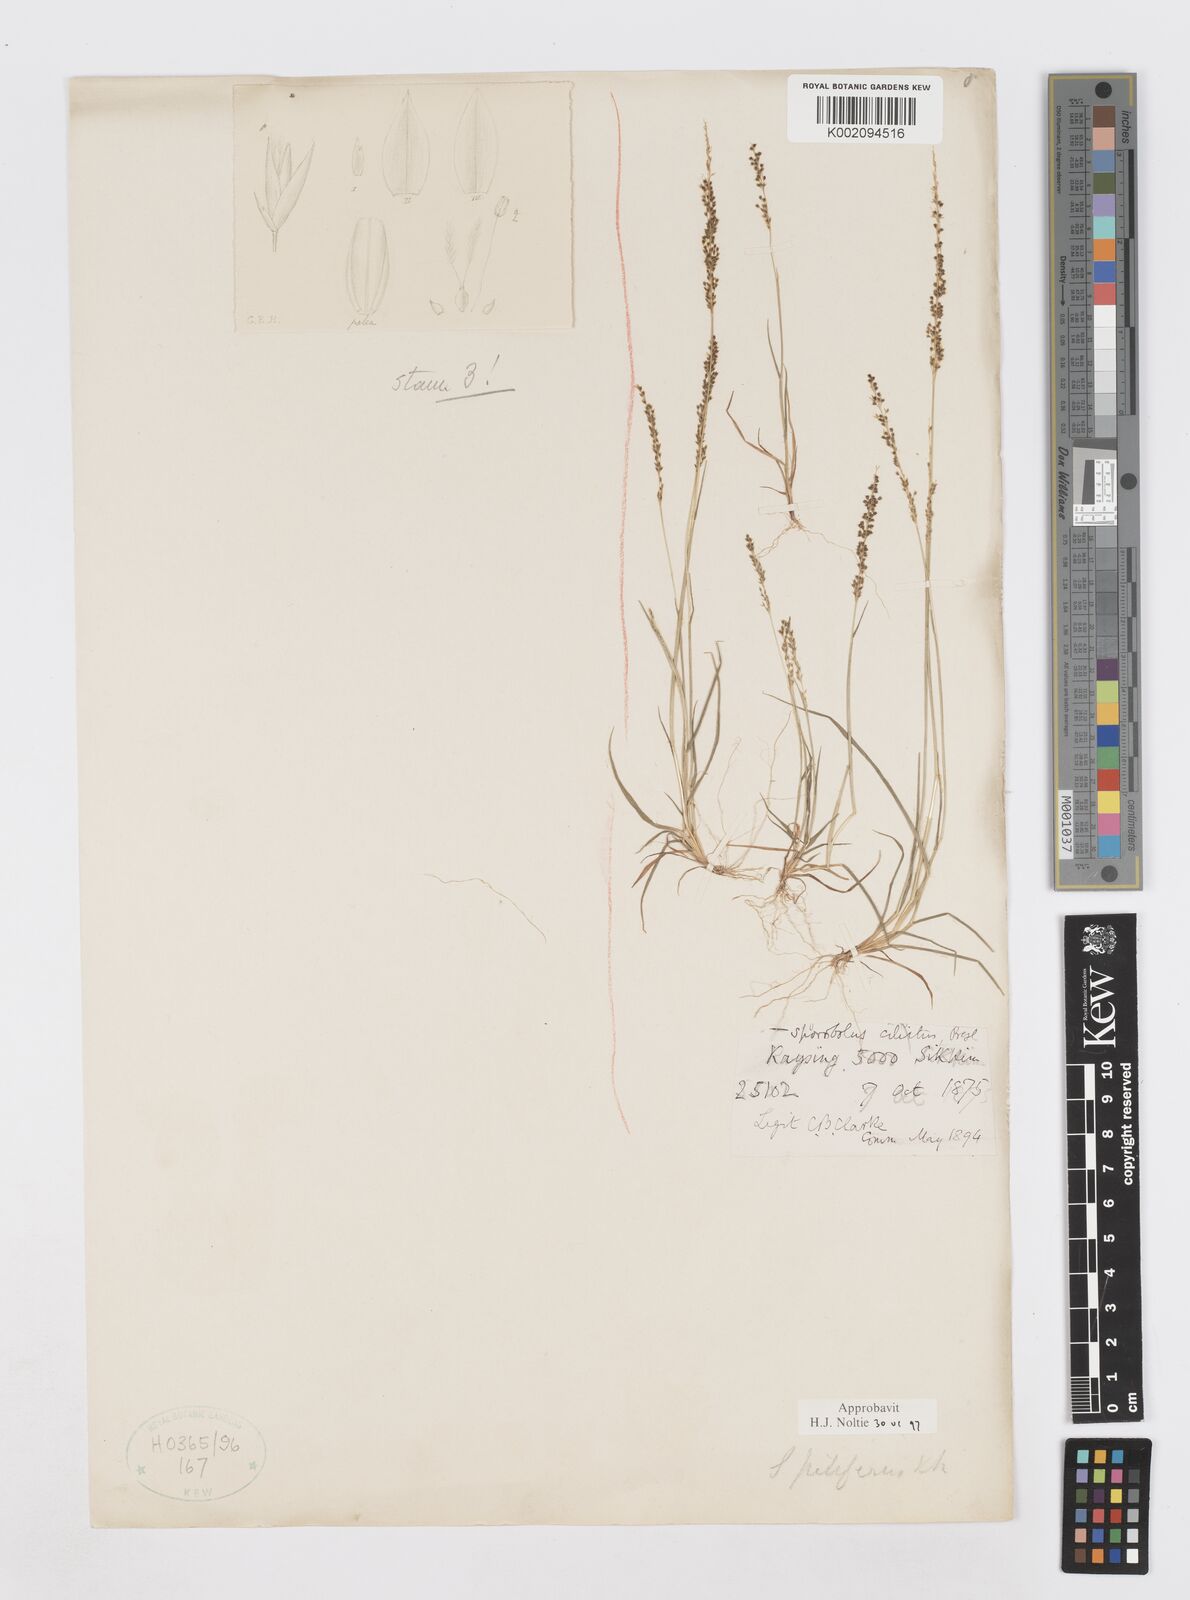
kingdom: Plantae
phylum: Tracheophyta
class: Liliopsida
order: Poales
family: Poaceae
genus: Sporobolus
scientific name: Sporobolus pilifer
